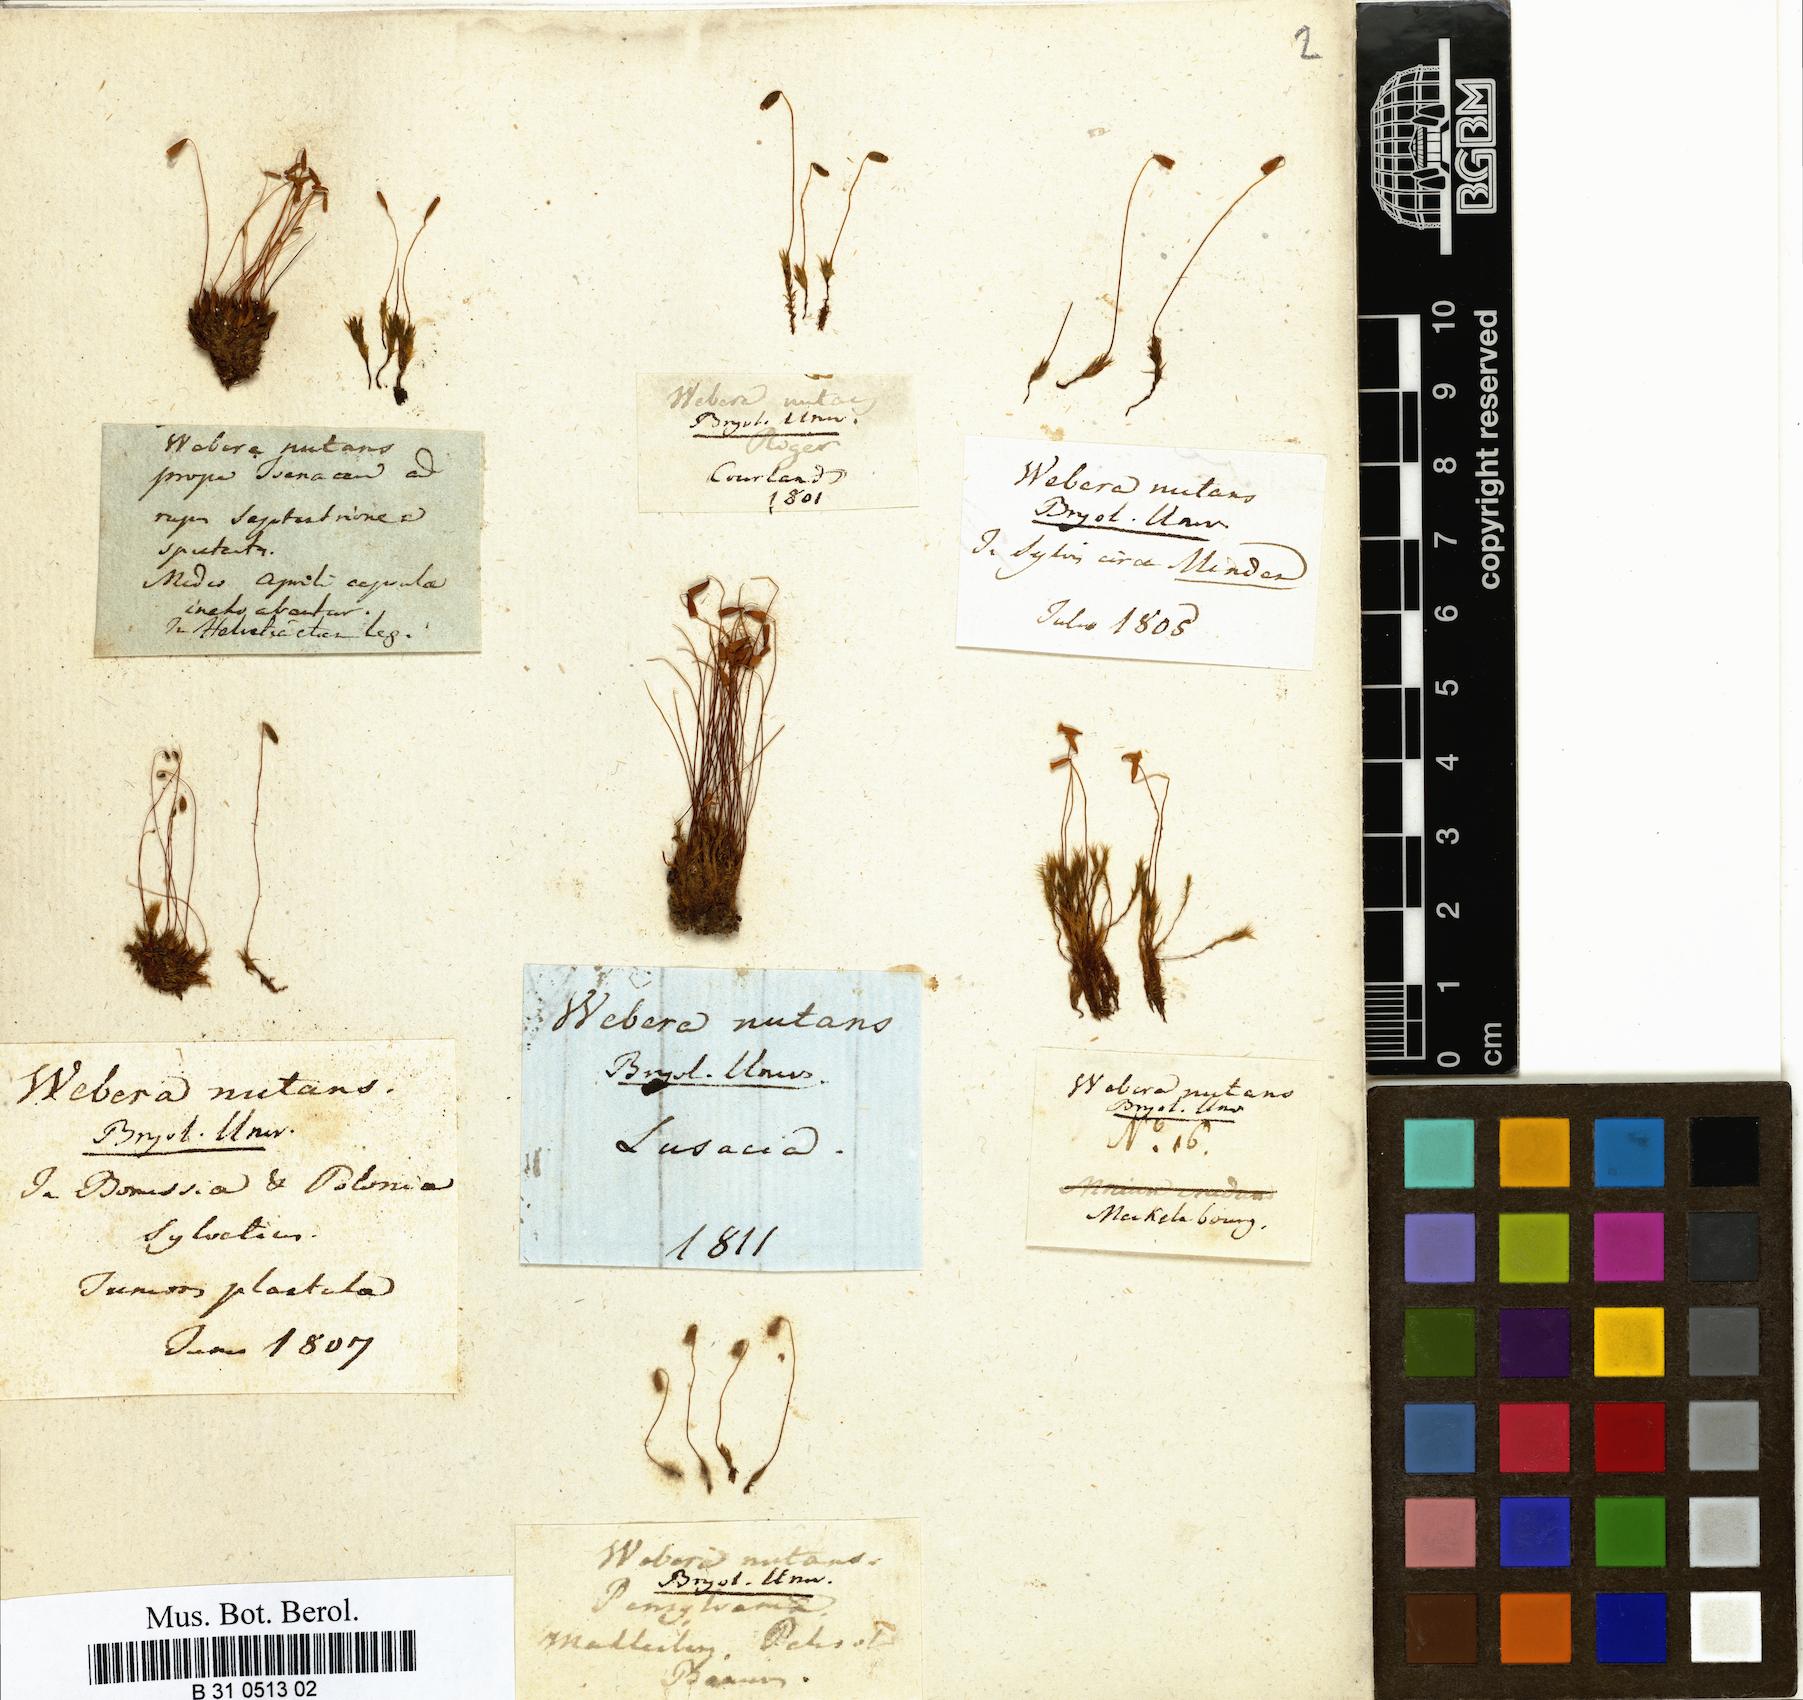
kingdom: Plantae
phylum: Bryophyta
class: Bryopsida
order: Bryales
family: Mniaceae
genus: Pohlia
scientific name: Pohlia nutans
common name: Nodding thread-moss
